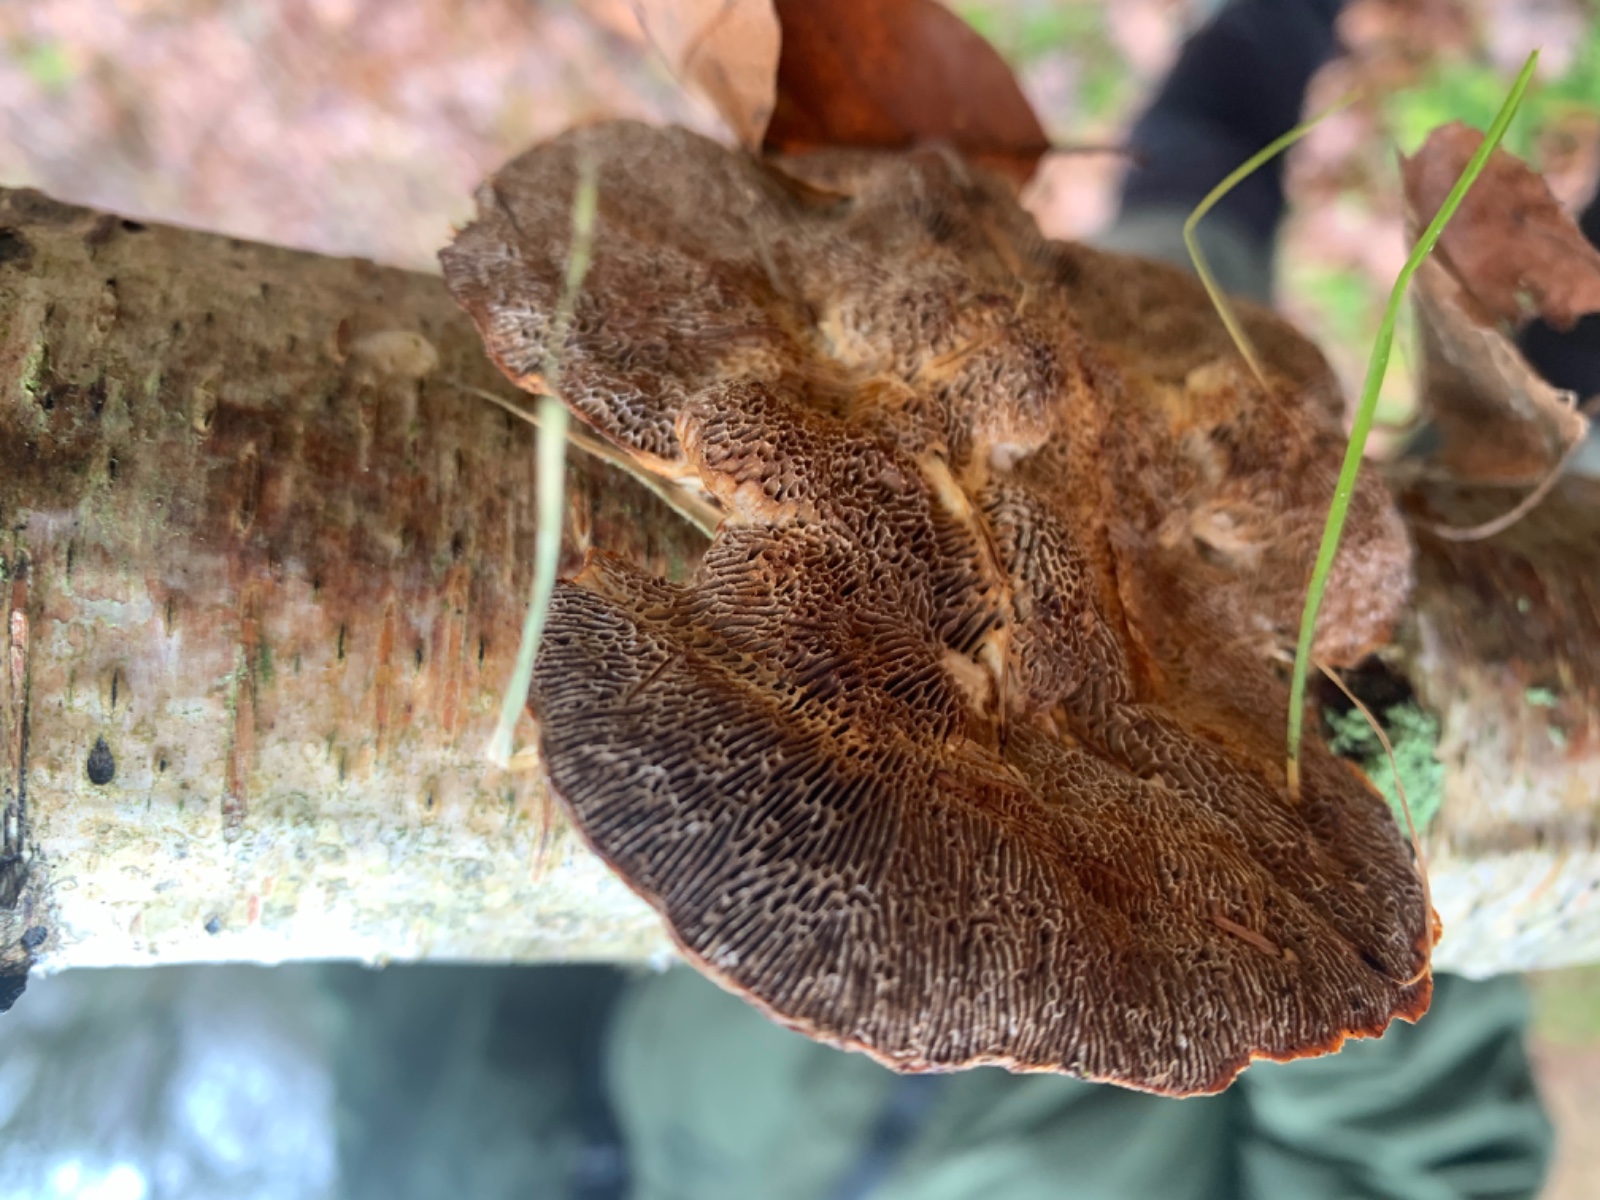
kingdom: Fungi
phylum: Basidiomycota
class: Agaricomycetes
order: Polyporales
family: Polyporaceae
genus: Daedaleopsis
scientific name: Daedaleopsis confragosa
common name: rødmende læderporesvamp
